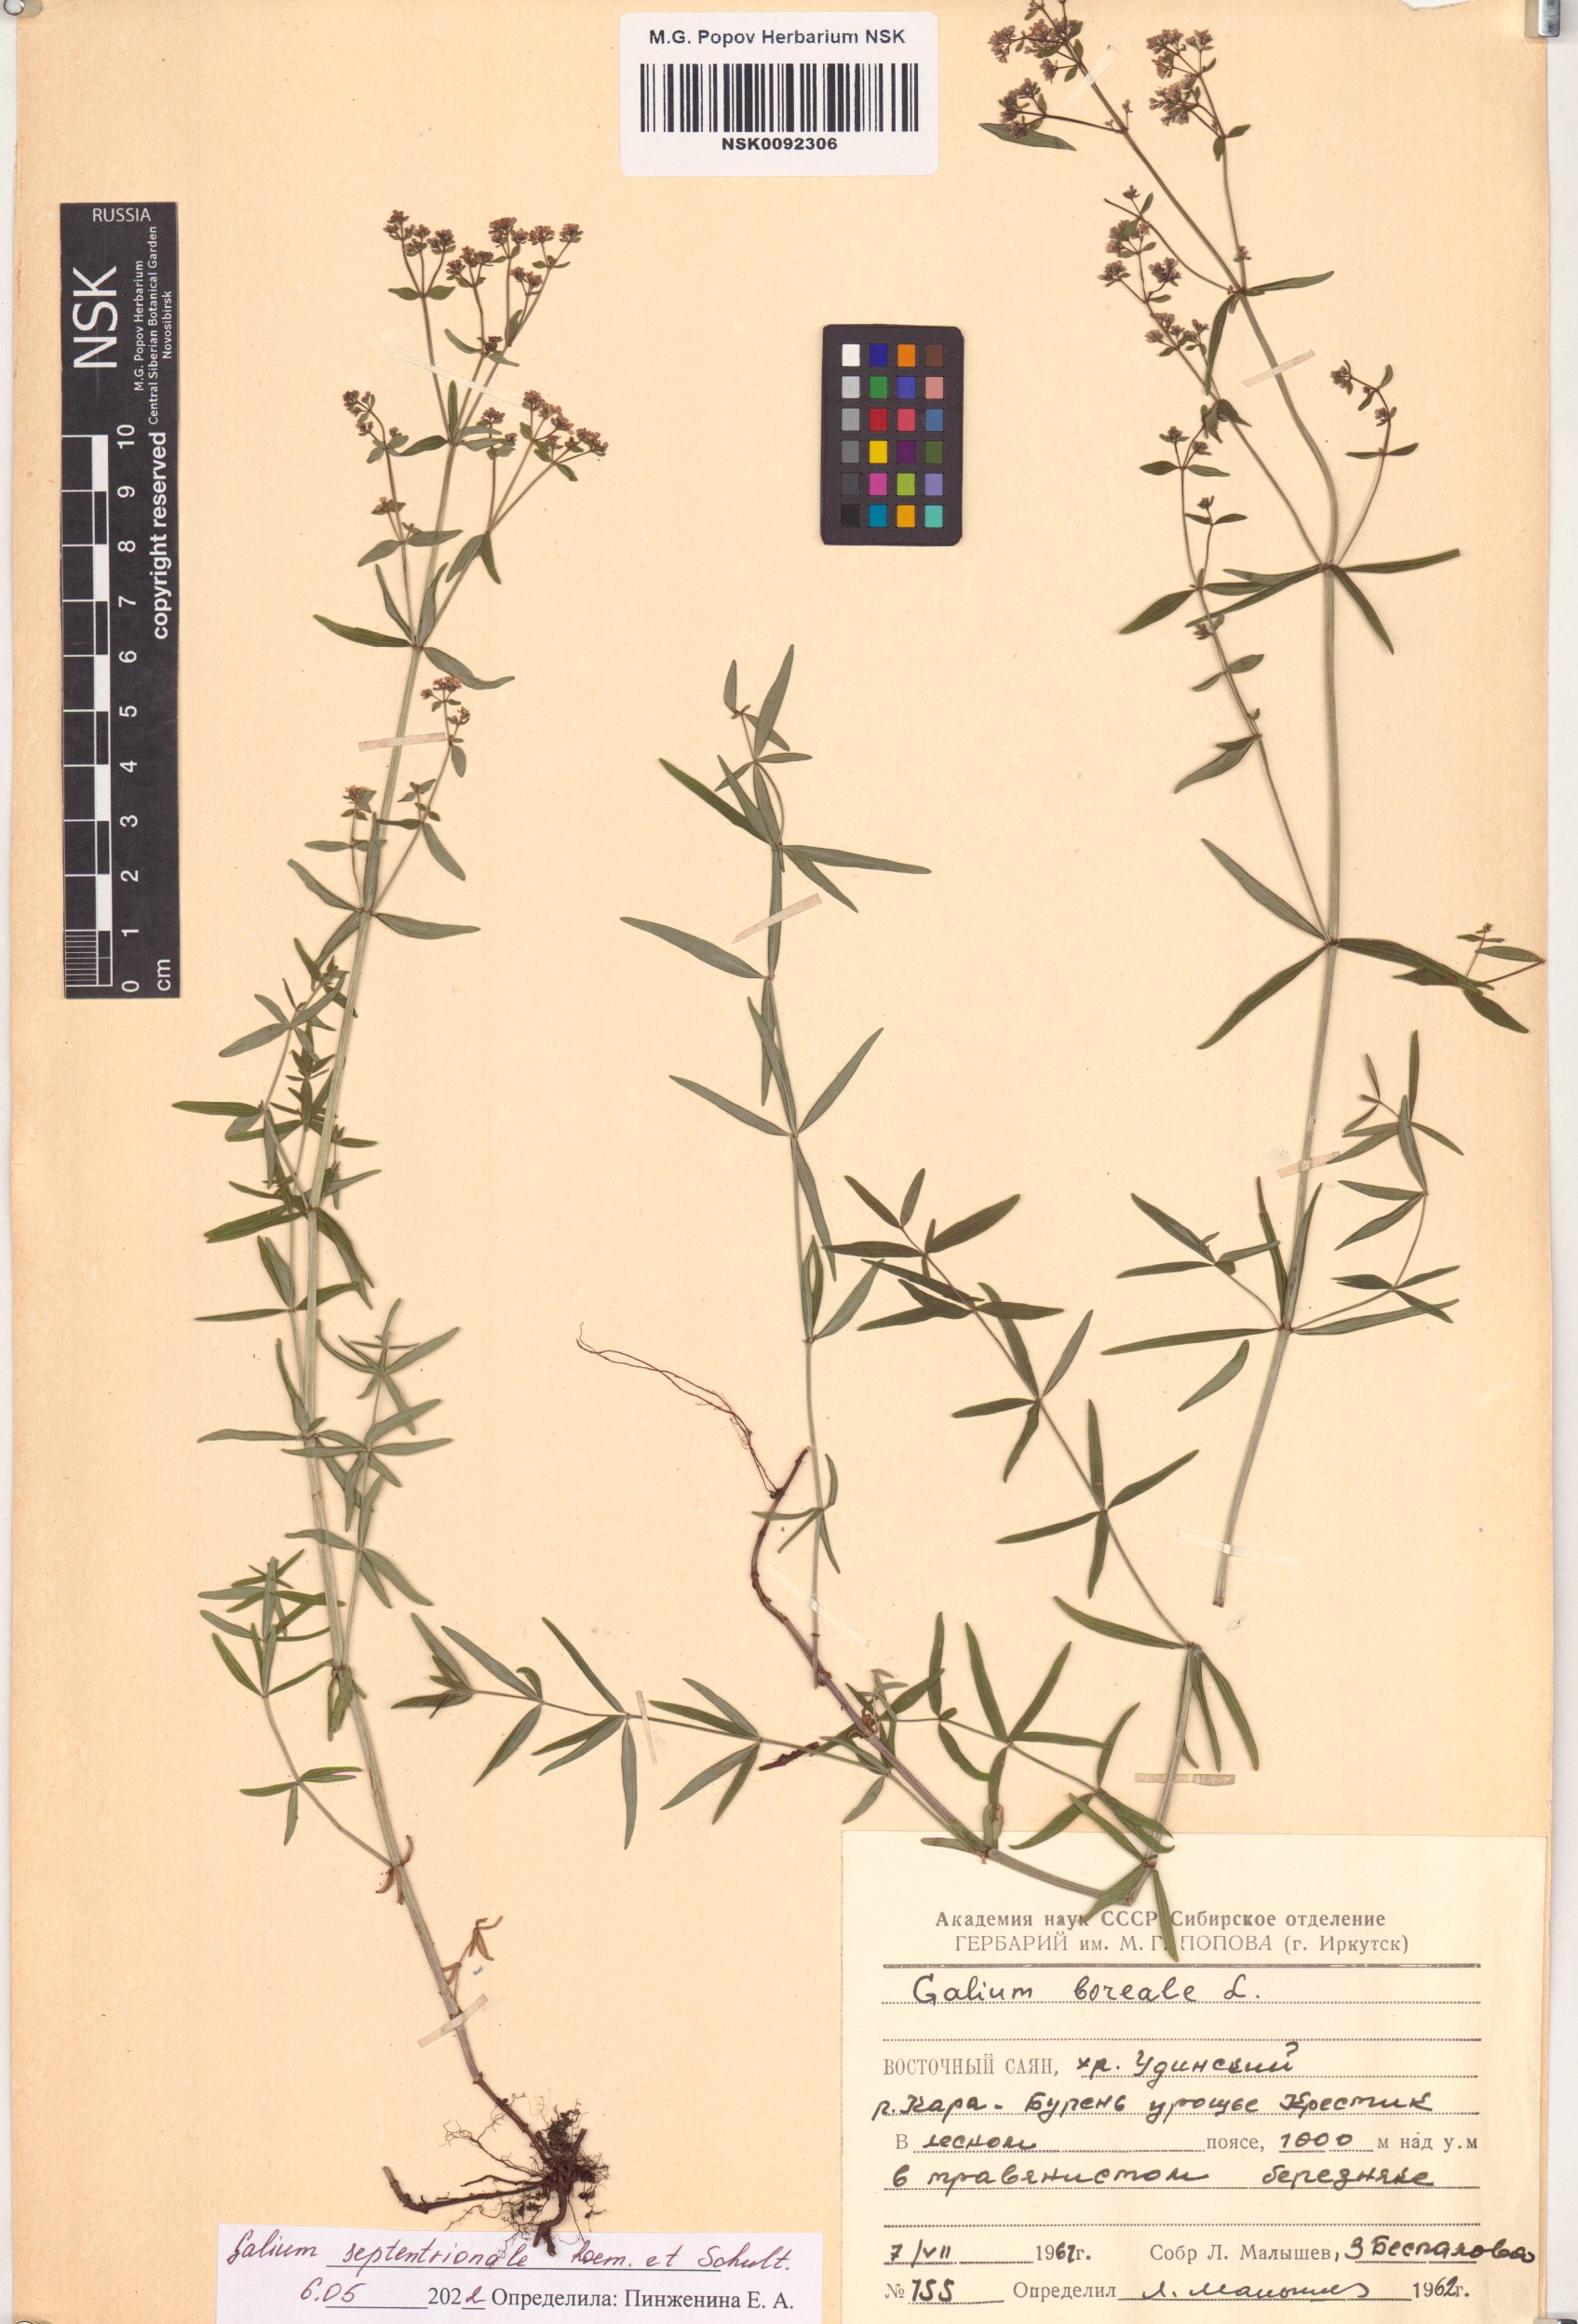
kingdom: Plantae
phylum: Tracheophyta
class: Magnoliopsida
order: Gentianales
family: Rubiaceae
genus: Galium
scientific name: Galium boreale
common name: Northern bedstraw
